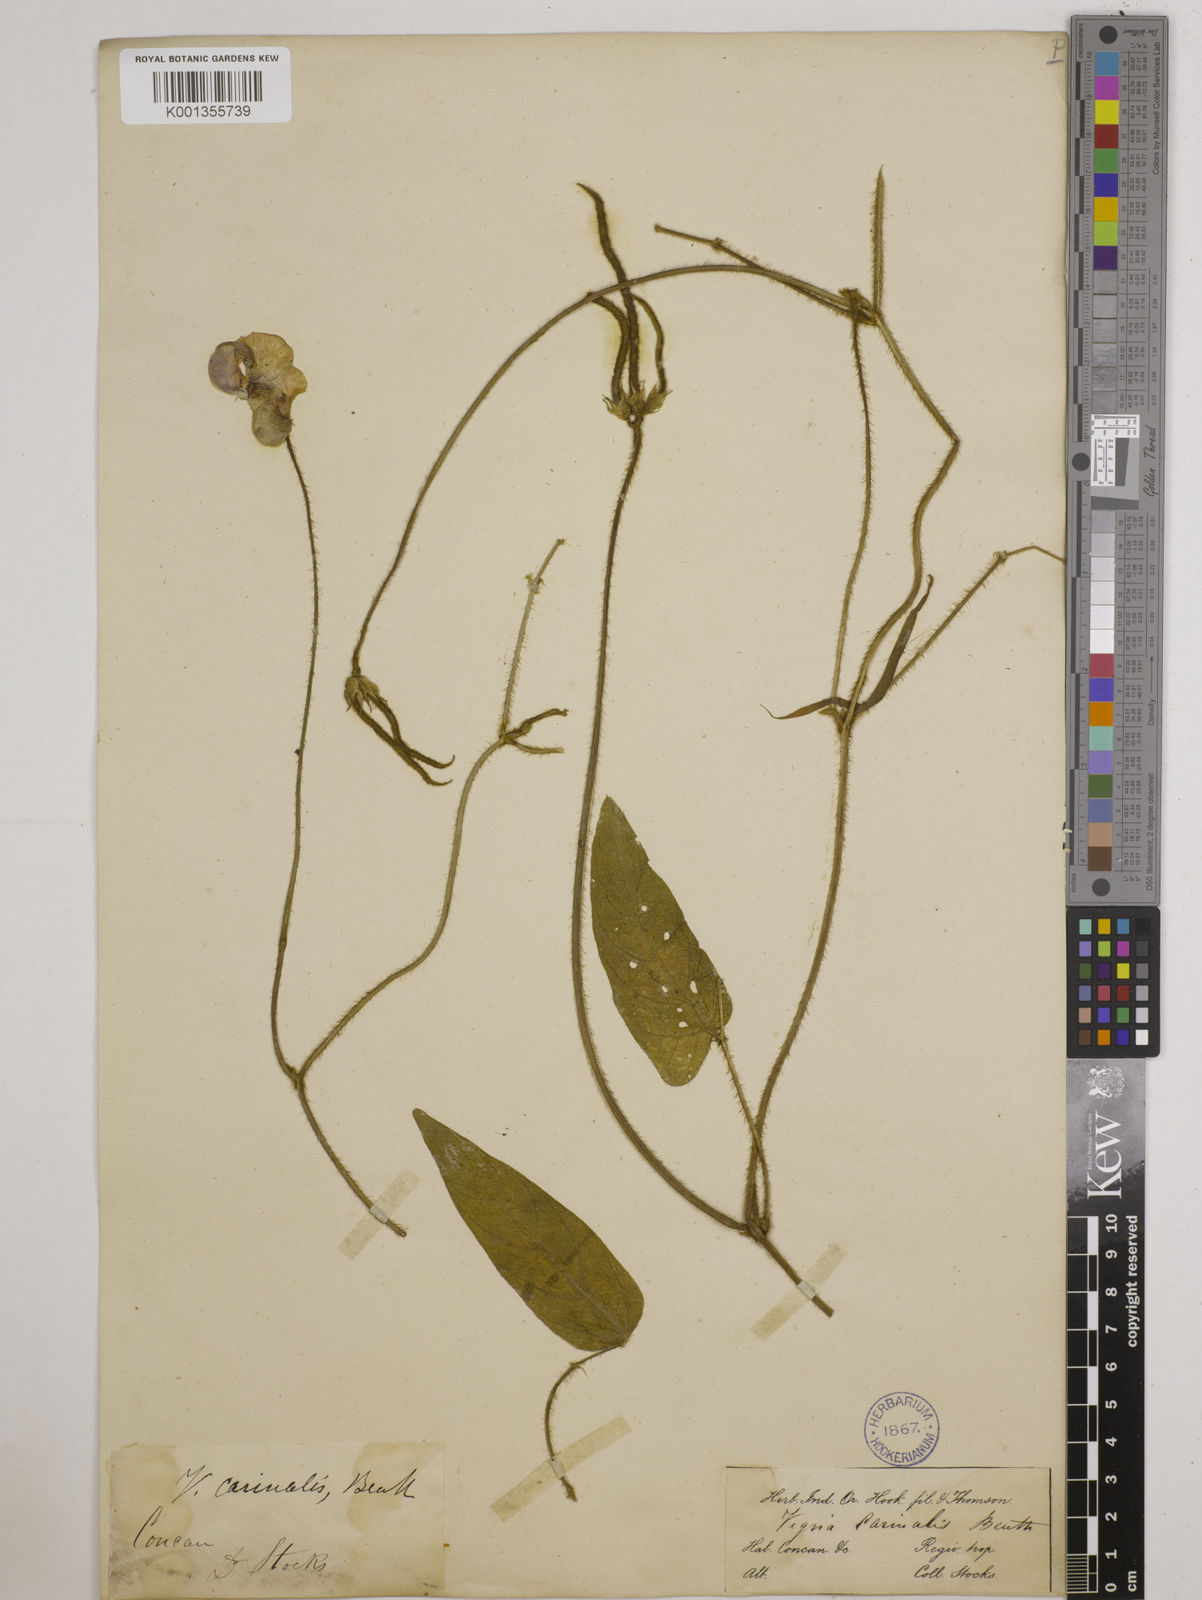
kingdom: Plantae
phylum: Tracheophyta
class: Magnoliopsida
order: Fabales
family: Fabaceae
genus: Vigna
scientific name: Vigna vexillata
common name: Zombi pea
